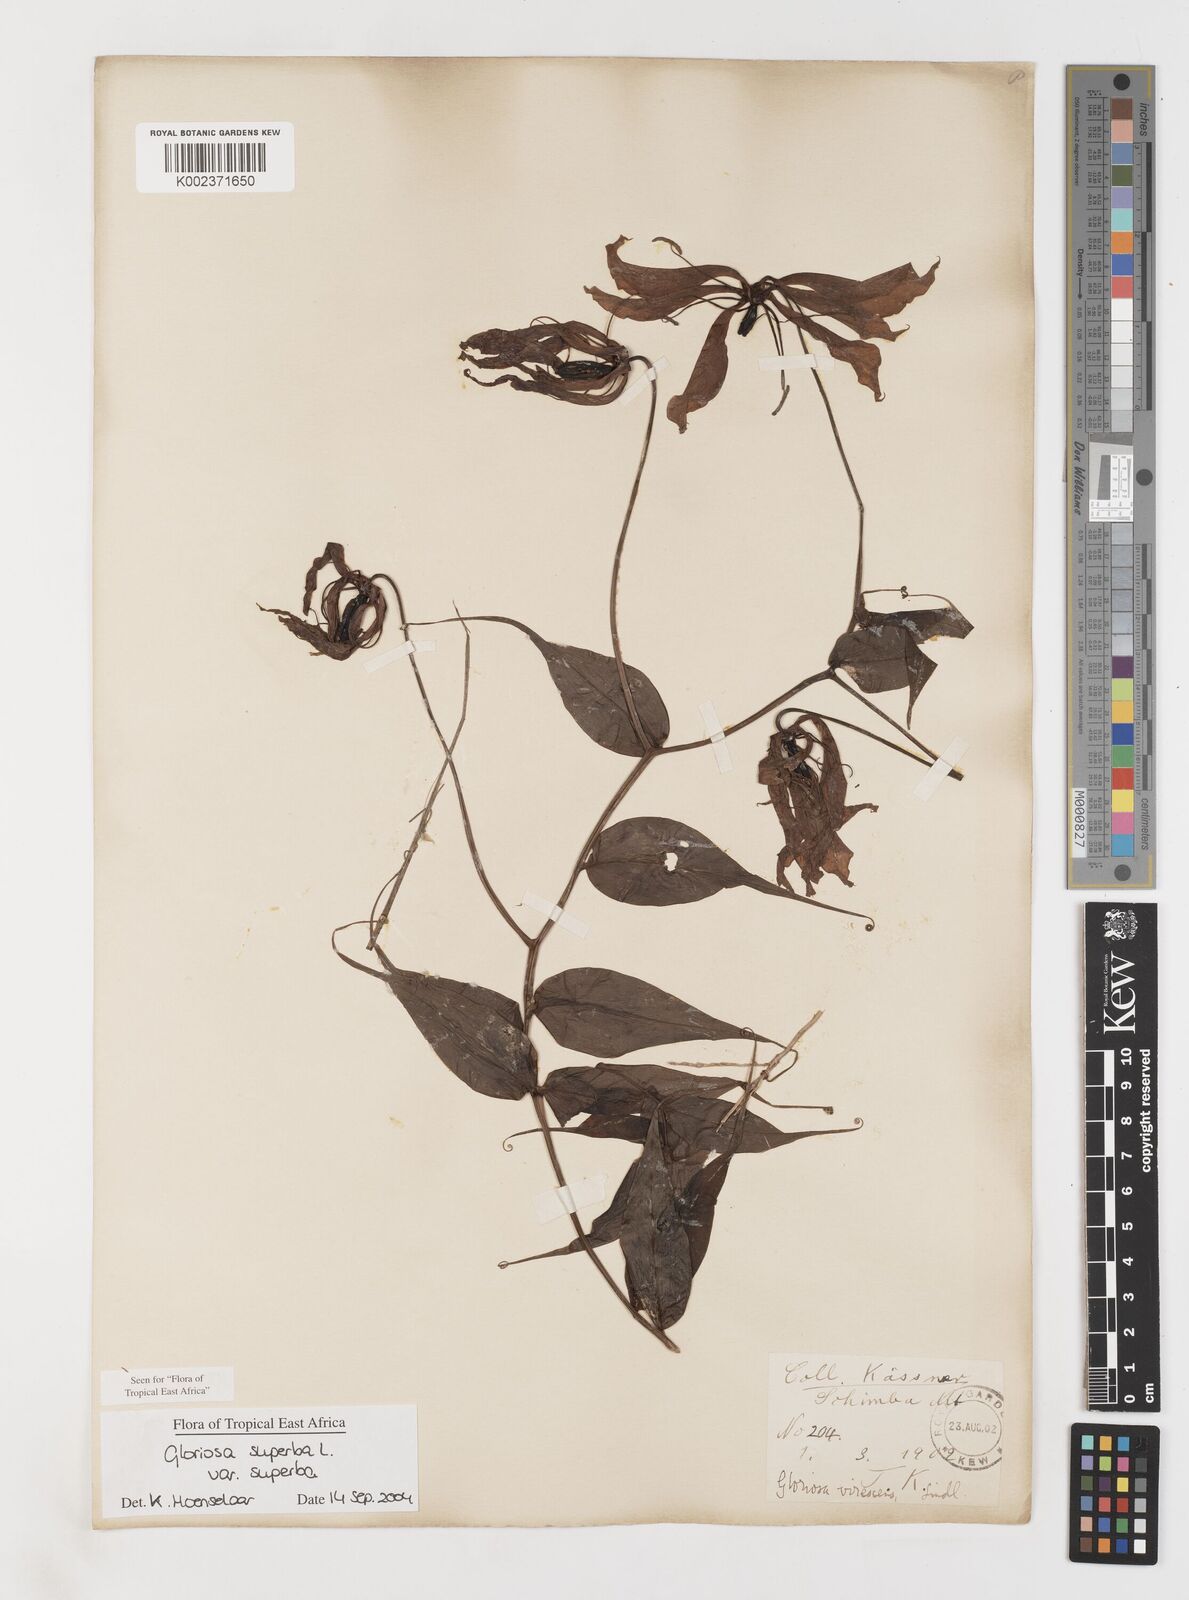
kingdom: Plantae
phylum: Tracheophyta
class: Liliopsida
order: Liliales
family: Colchicaceae
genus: Gloriosa
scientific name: Gloriosa simplex
